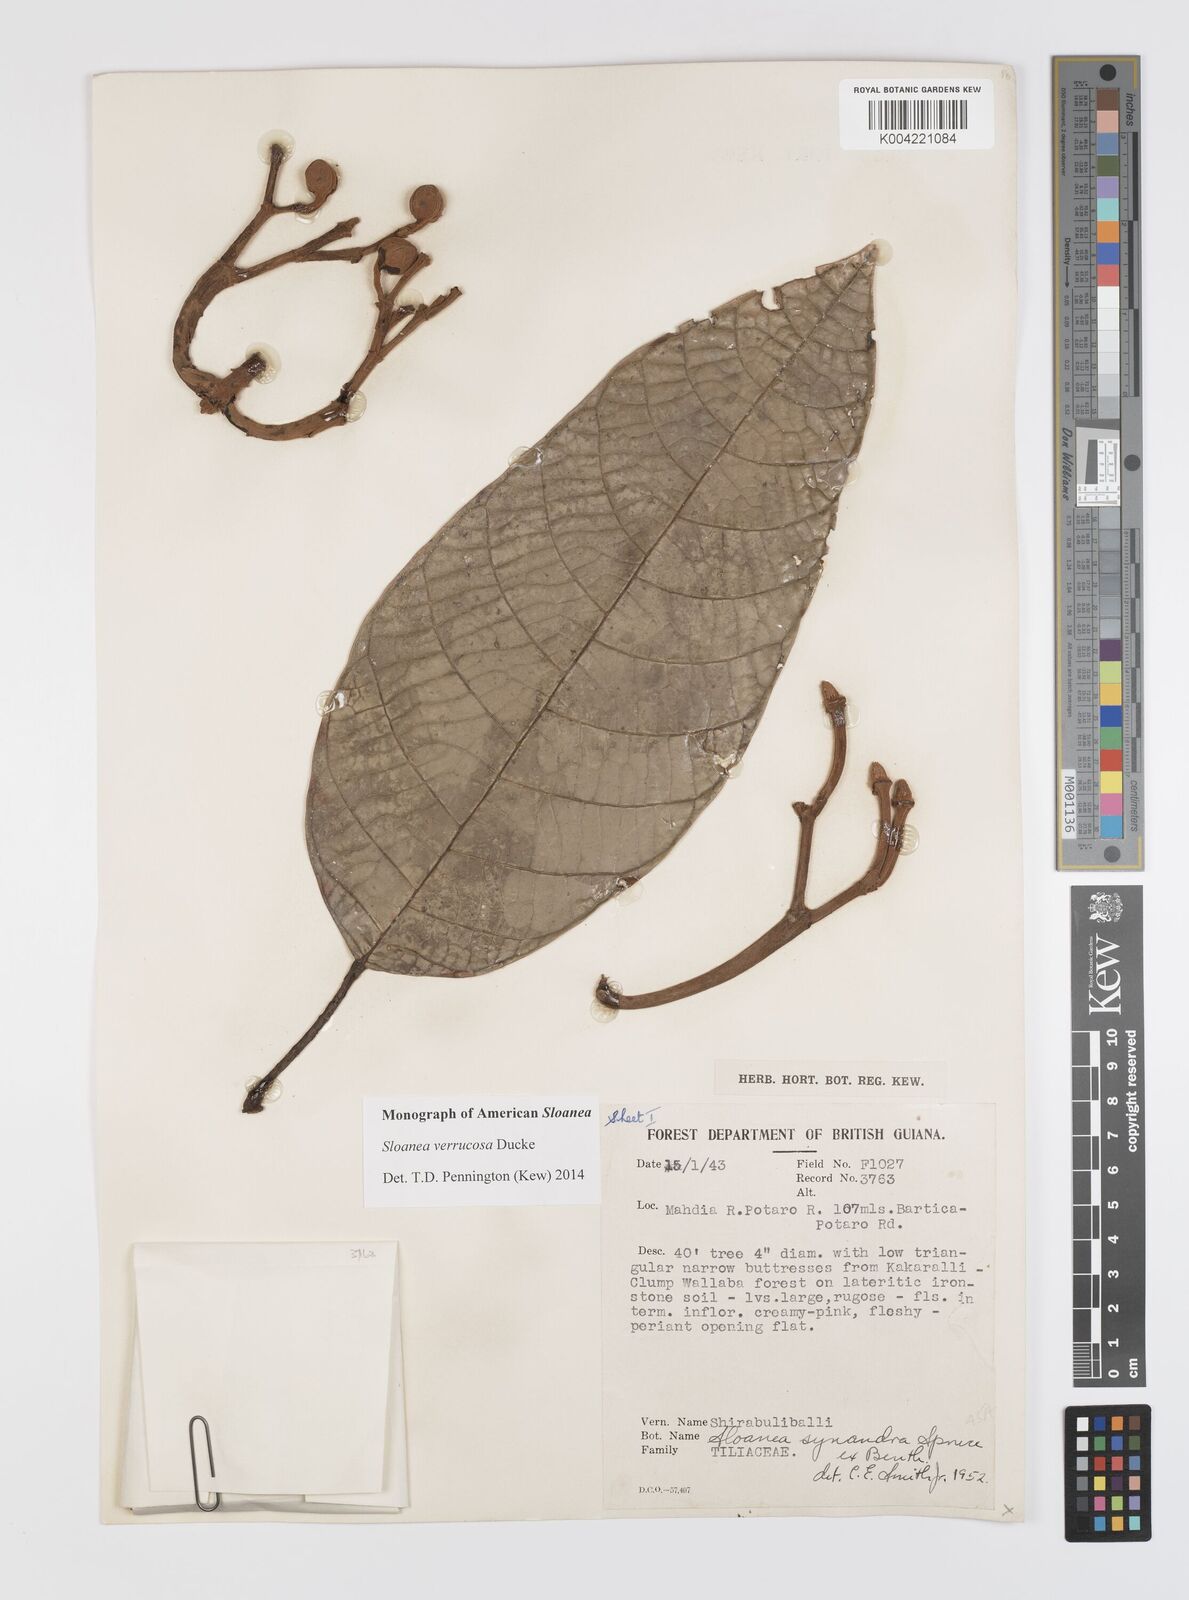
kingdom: Plantae
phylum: Tracheophyta
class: Magnoliopsida
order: Oxalidales
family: Elaeocarpaceae
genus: Sloanea
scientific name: Sloanea schomburgkii
